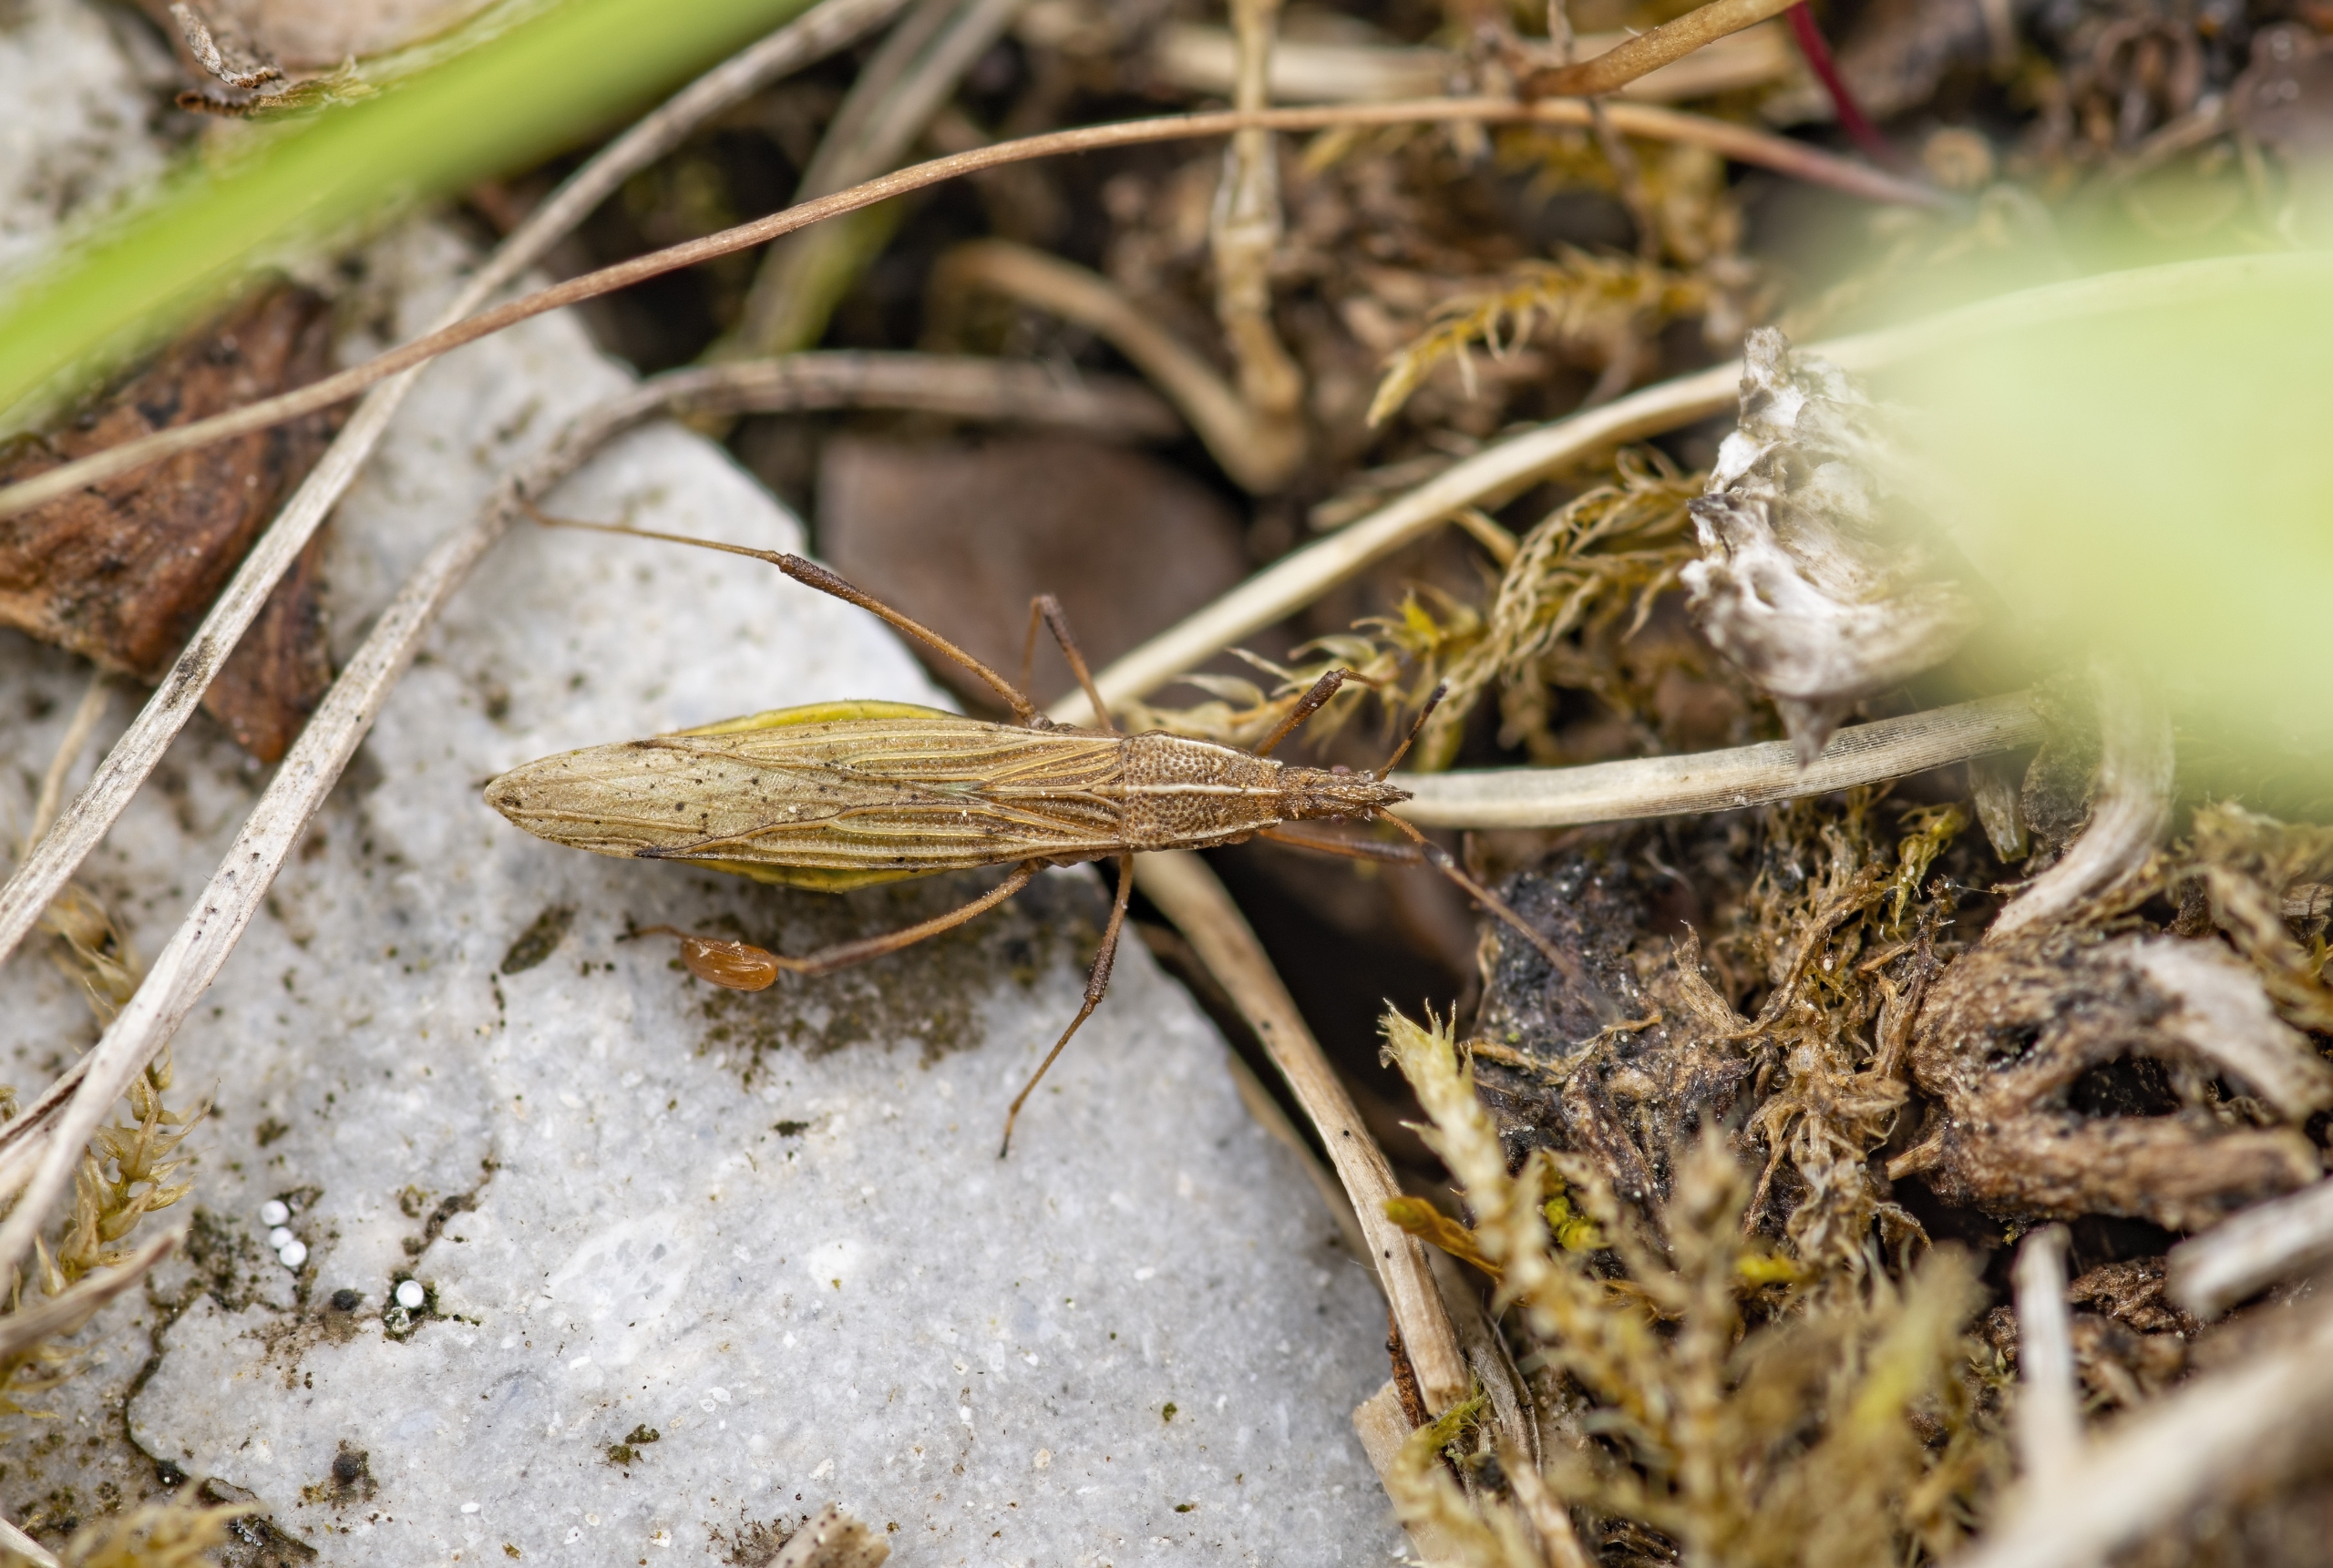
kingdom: Animalia
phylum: Arthropoda
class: Insecta
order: Hemiptera
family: Berytidae
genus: Berytinus
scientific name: Berytinus minor
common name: Lille styltetæge
